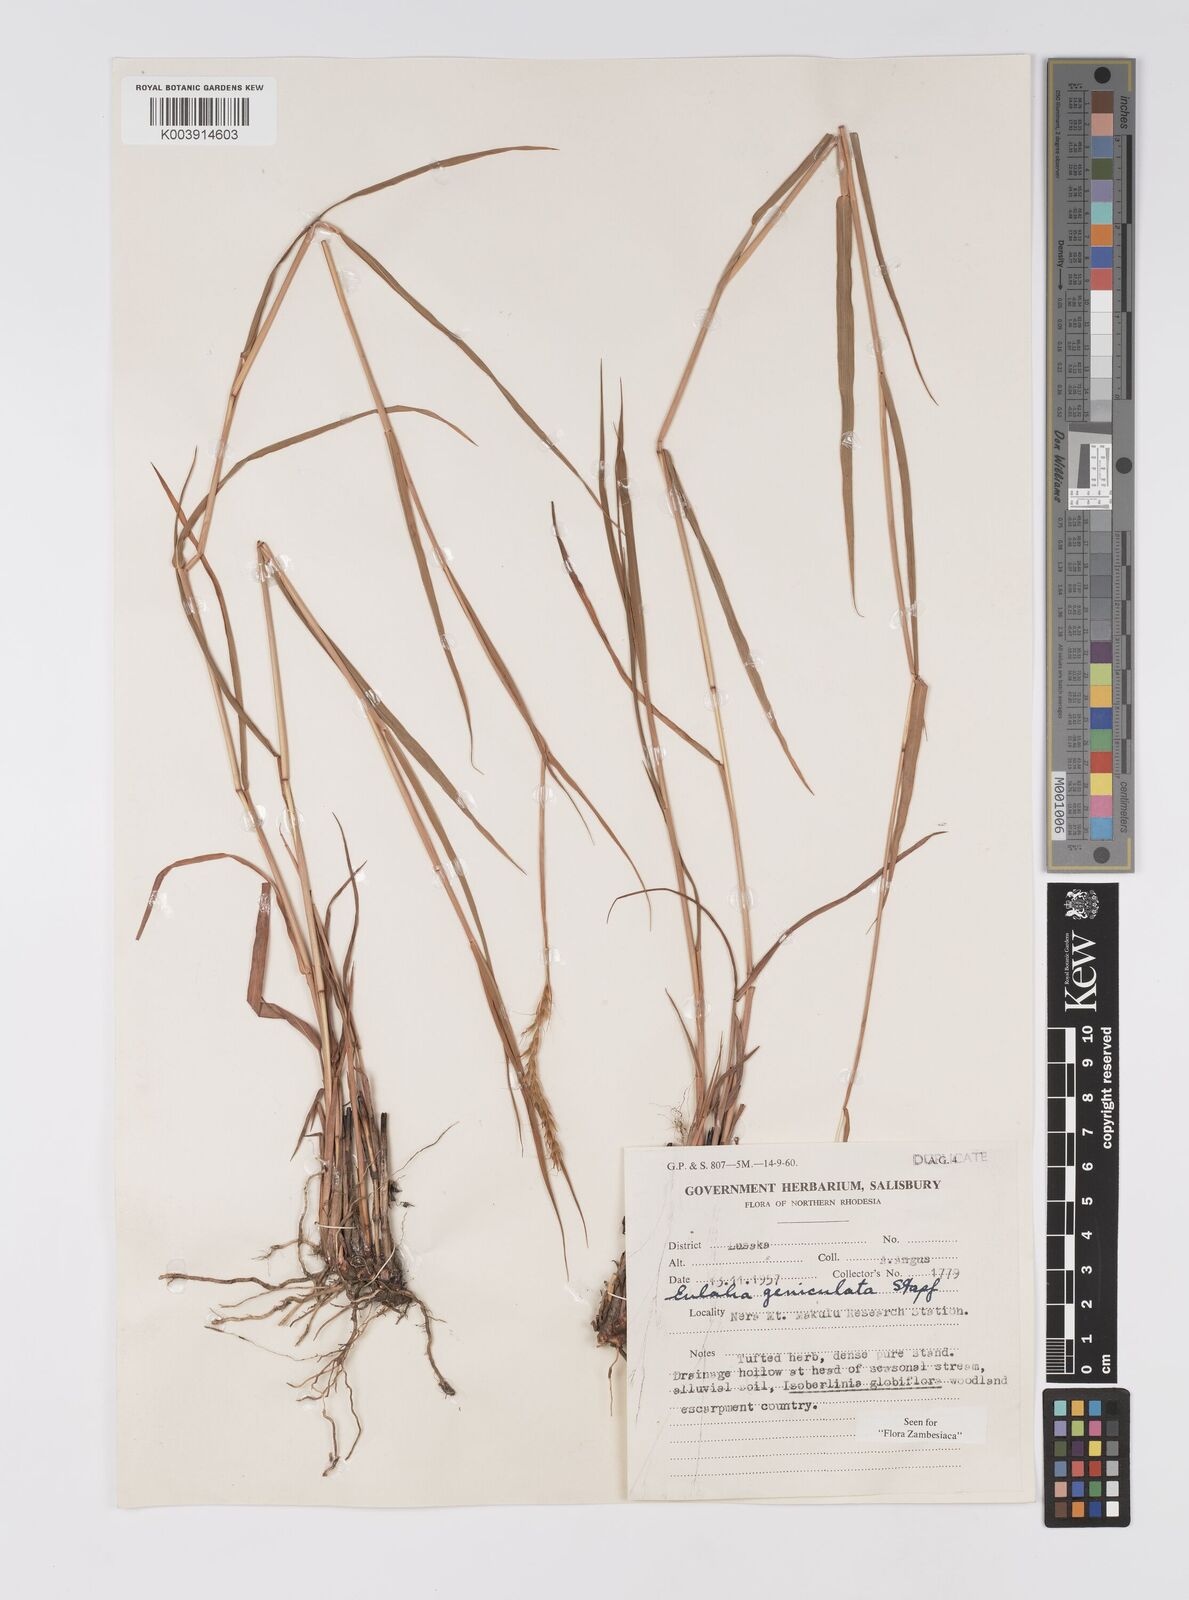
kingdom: Plantae
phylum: Tracheophyta
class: Liliopsida
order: Poales
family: Poaceae
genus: Eulalia
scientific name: Eulalia aurea
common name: Silky browntop
